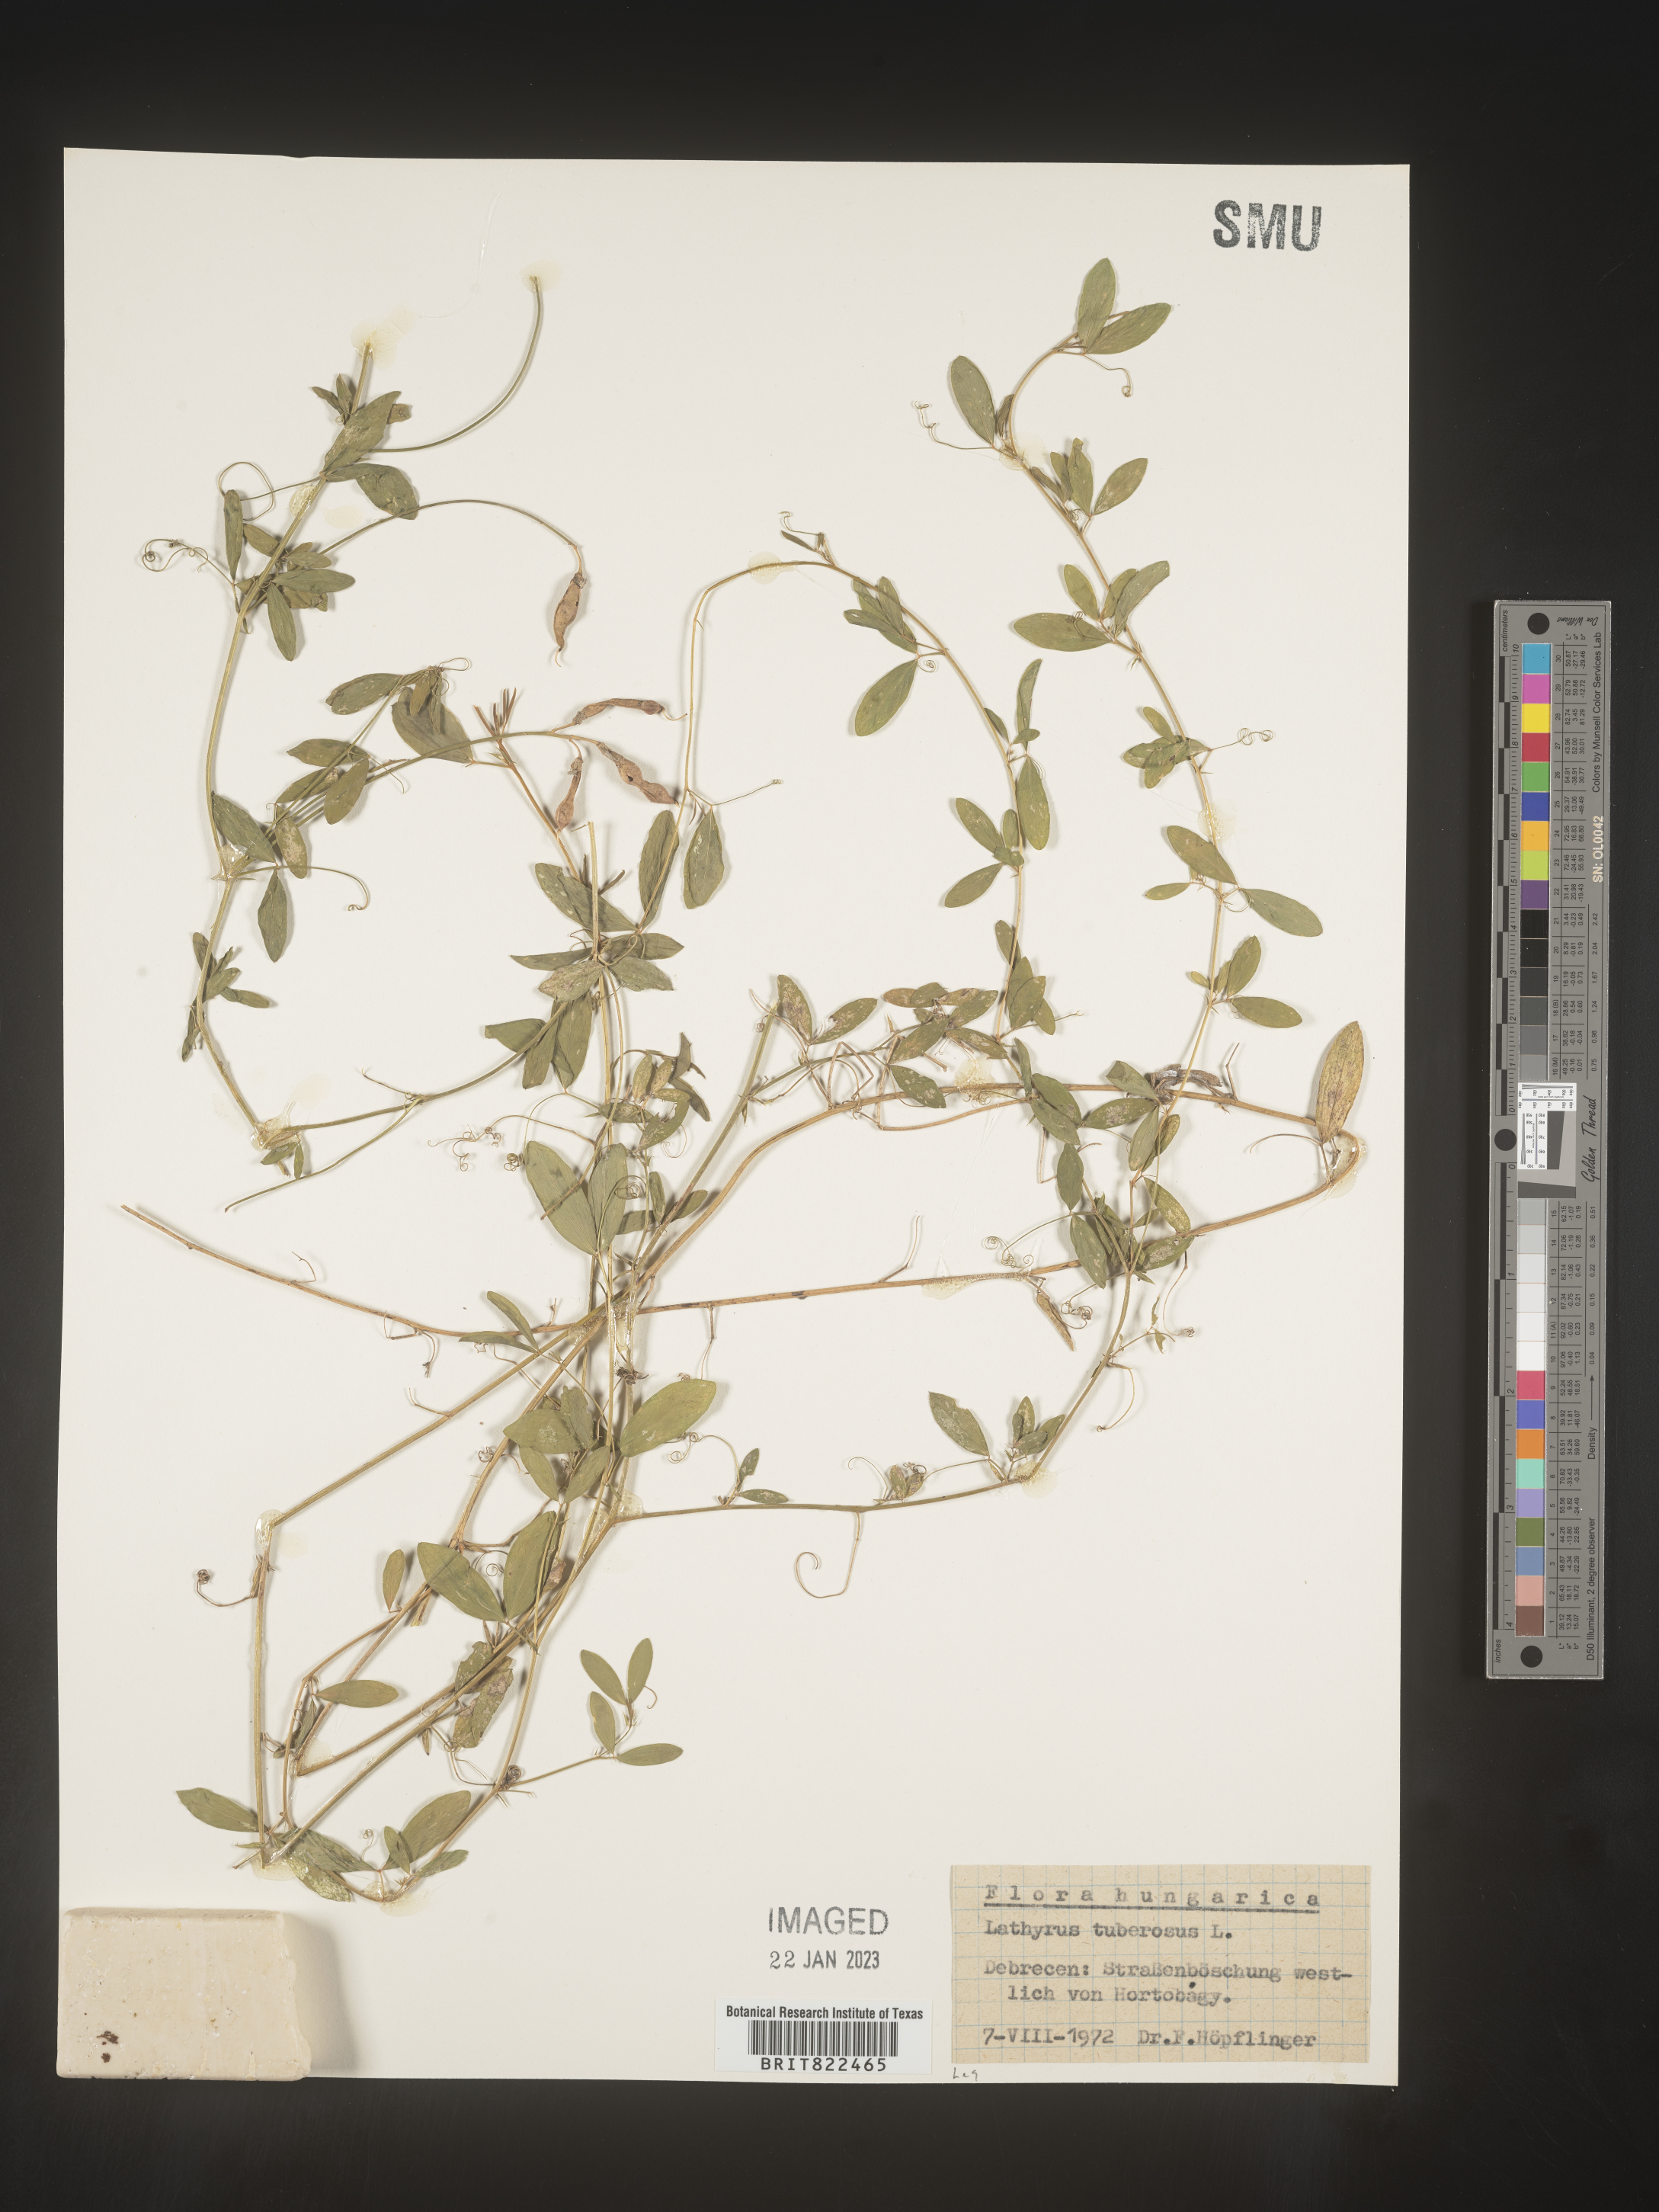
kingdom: Plantae
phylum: Tracheophyta
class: Magnoliopsida
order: Fabales
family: Fabaceae
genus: Lathyrus
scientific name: Lathyrus
